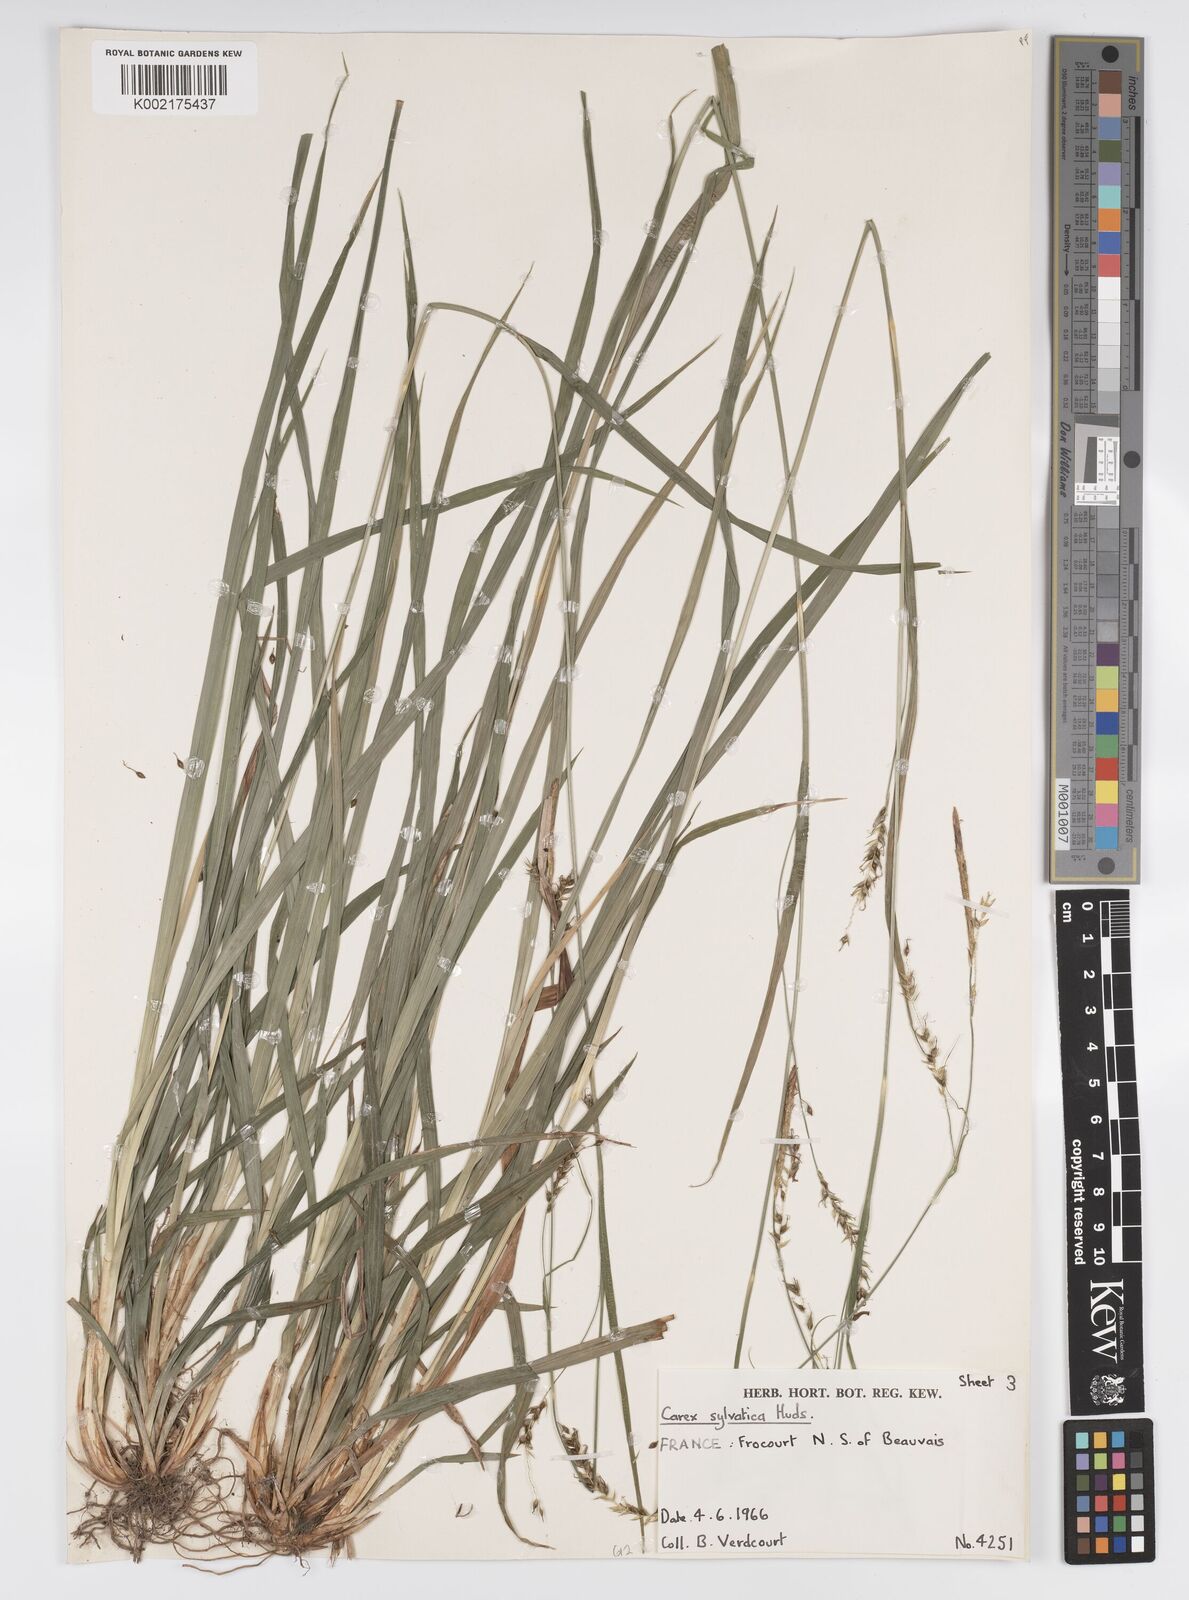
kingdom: Plantae
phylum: Tracheophyta
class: Liliopsida
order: Poales
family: Cyperaceae
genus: Carex
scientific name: Carex sylvatica
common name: Wood-sedge
